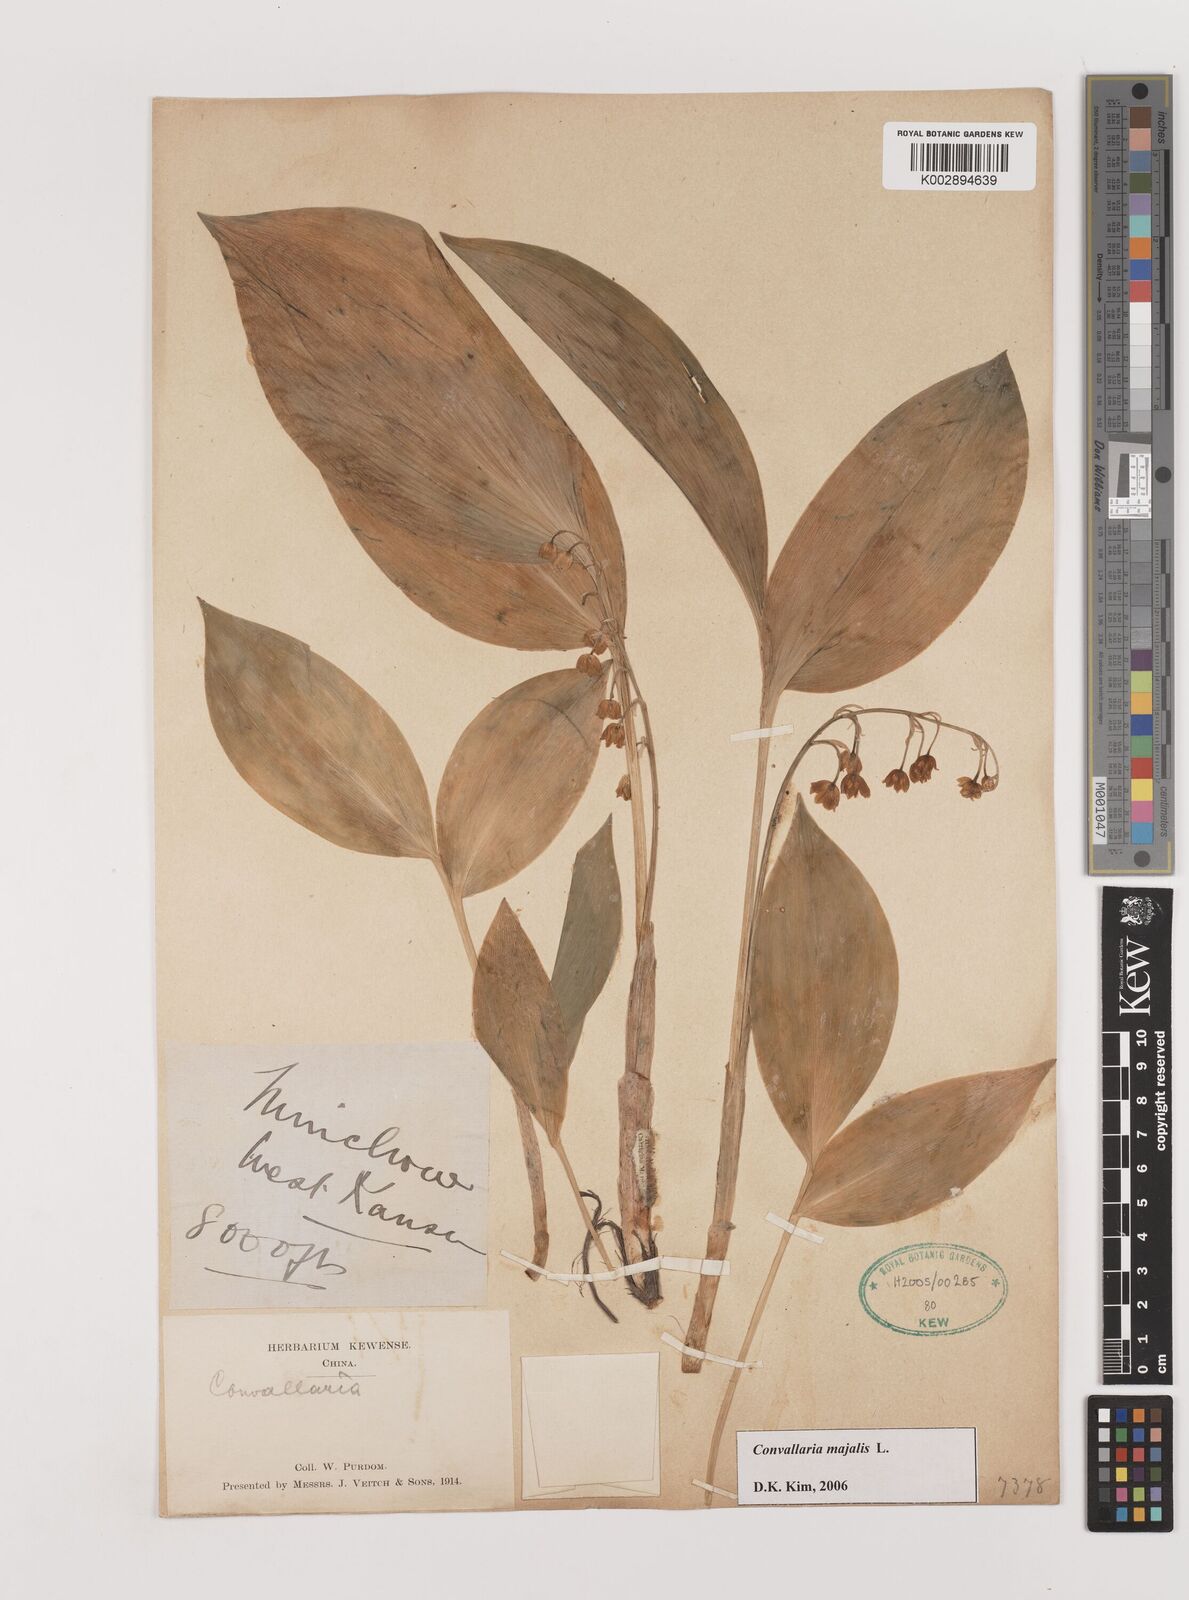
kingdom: Plantae
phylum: Tracheophyta
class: Liliopsida
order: Asparagales
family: Asparagaceae
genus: Ophiopogon
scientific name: Ophiopogon
